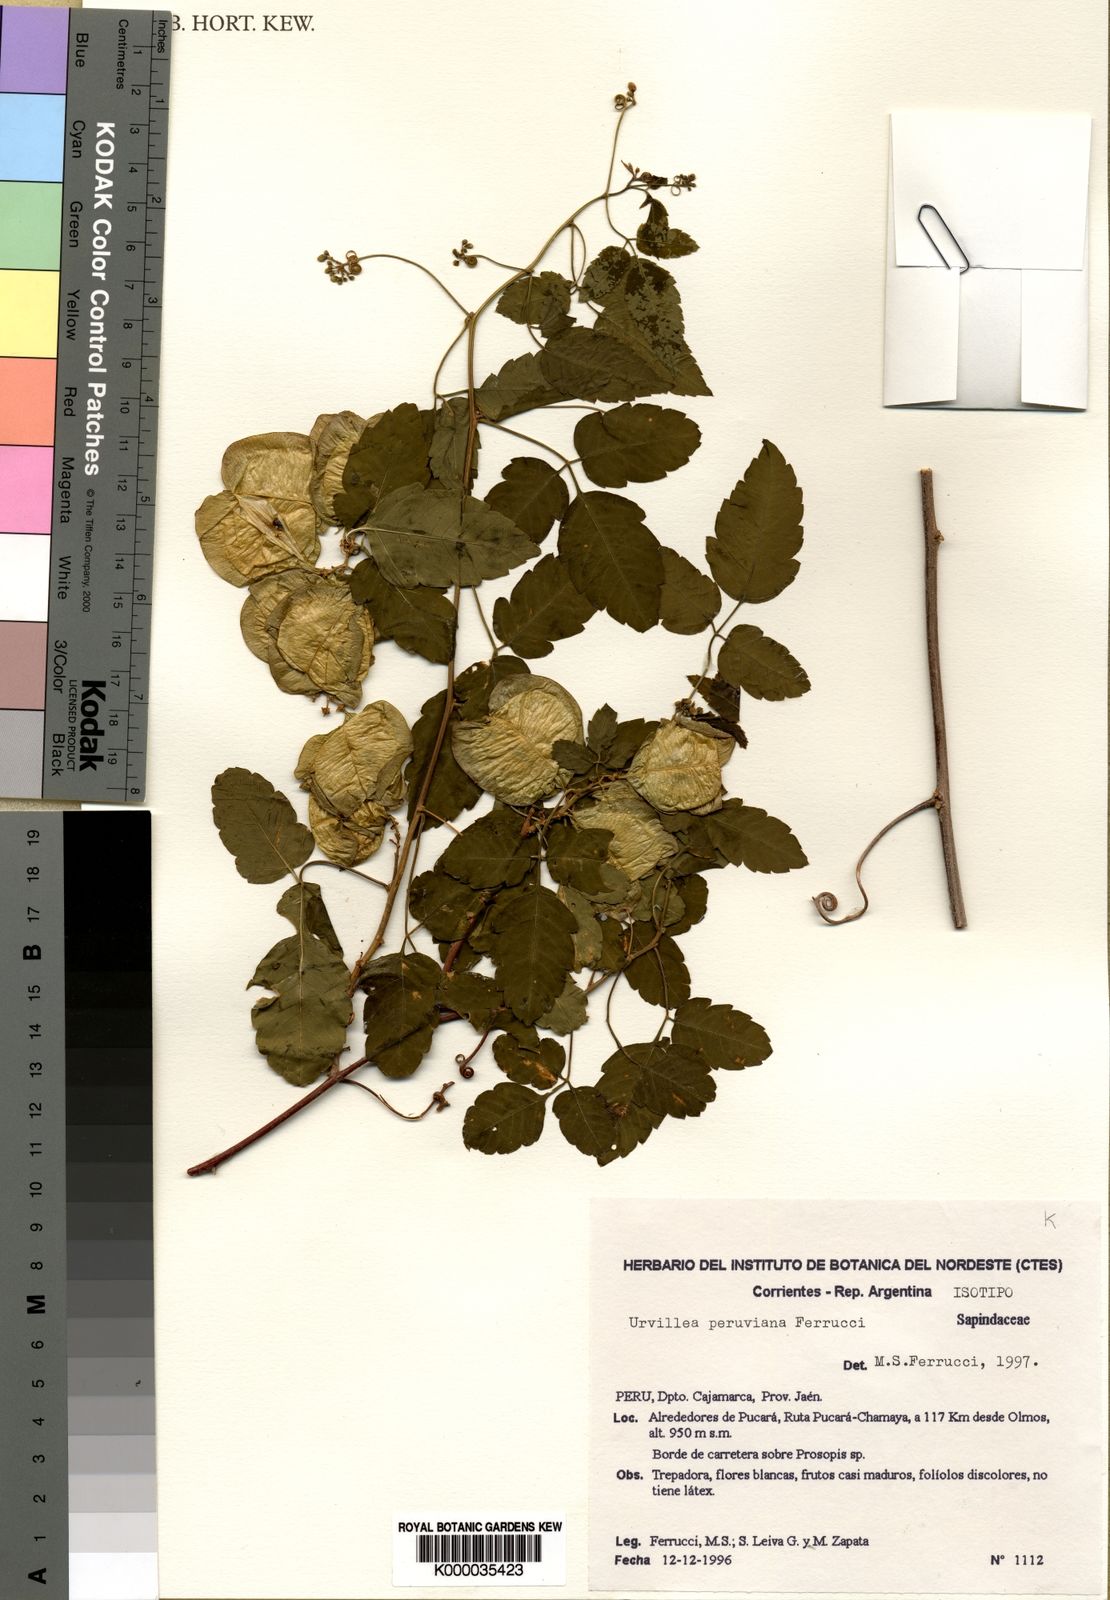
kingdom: Plantae
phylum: Tracheophyta
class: Magnoliopsida
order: Sapindales
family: Sapindaceae
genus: Urvillea
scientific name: Urvillea peruviana
